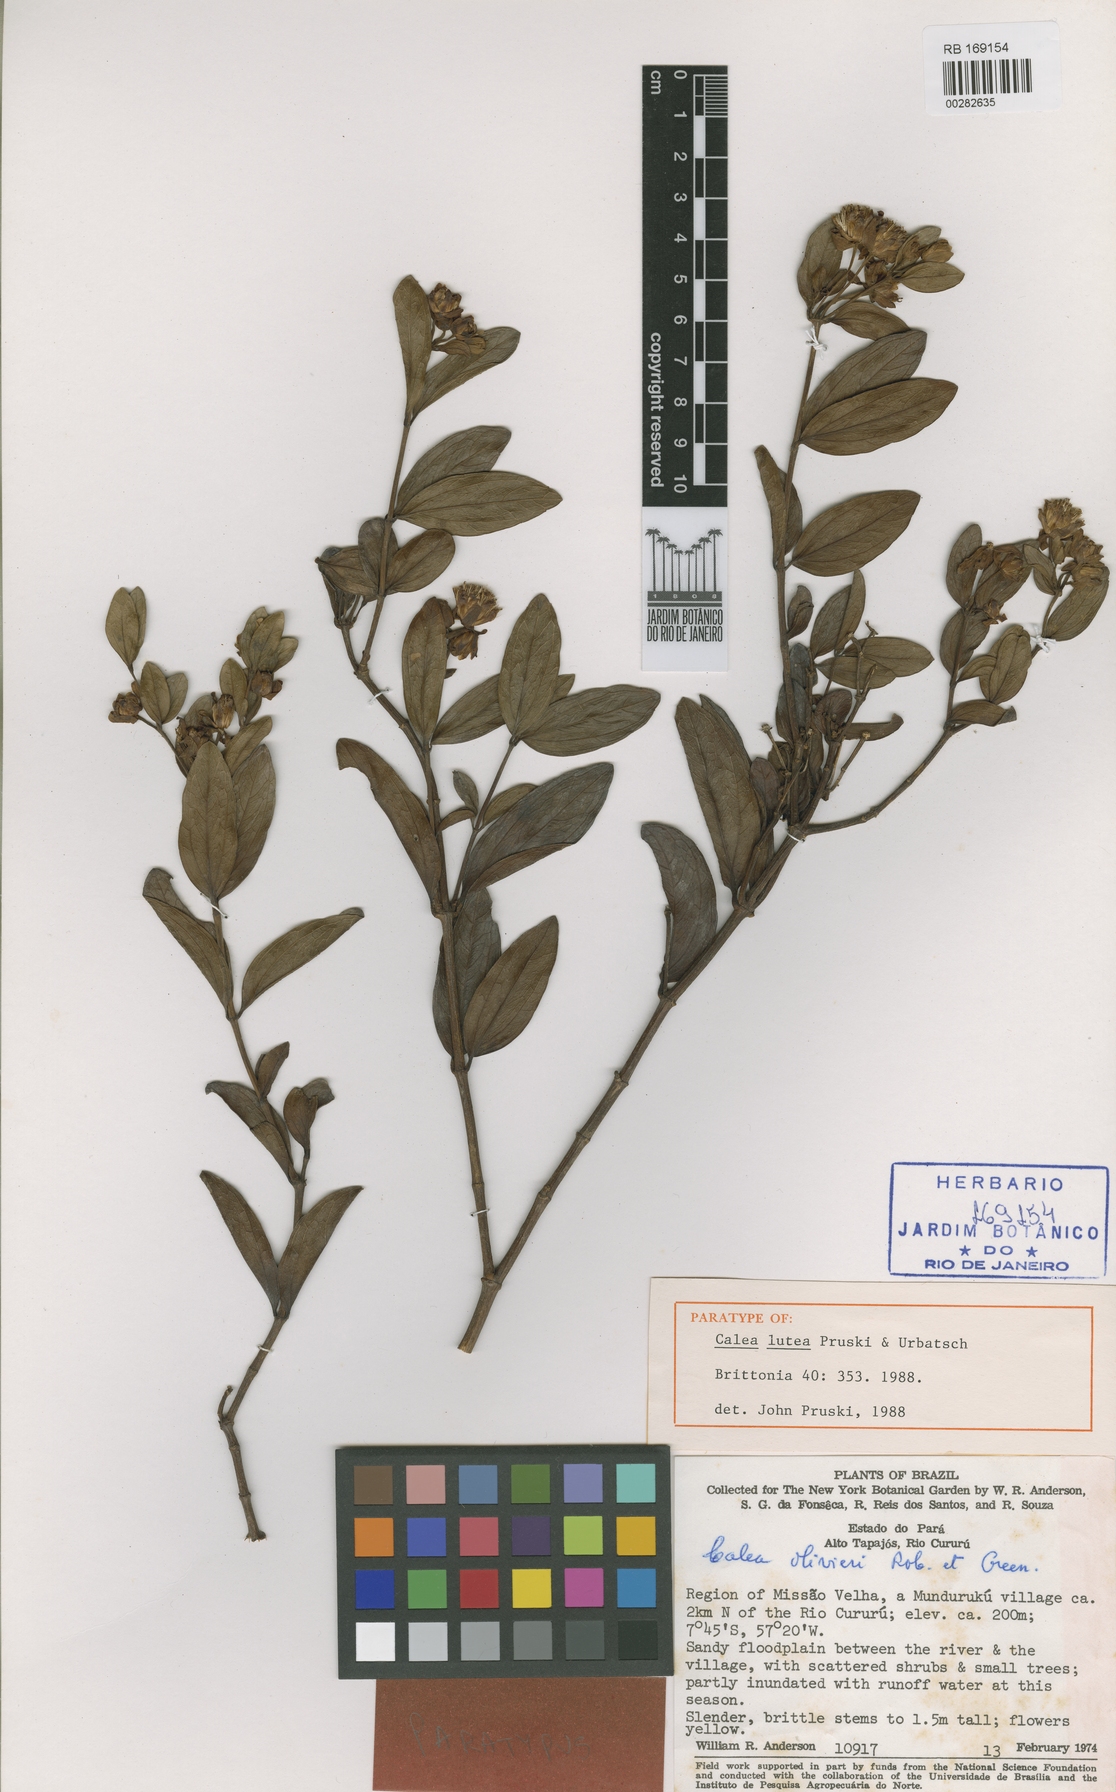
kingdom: Plantae
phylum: Tracheophyta
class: Magnoliopsida
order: Asterales
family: Asteraceae
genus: Calea
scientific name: Calea lutea
